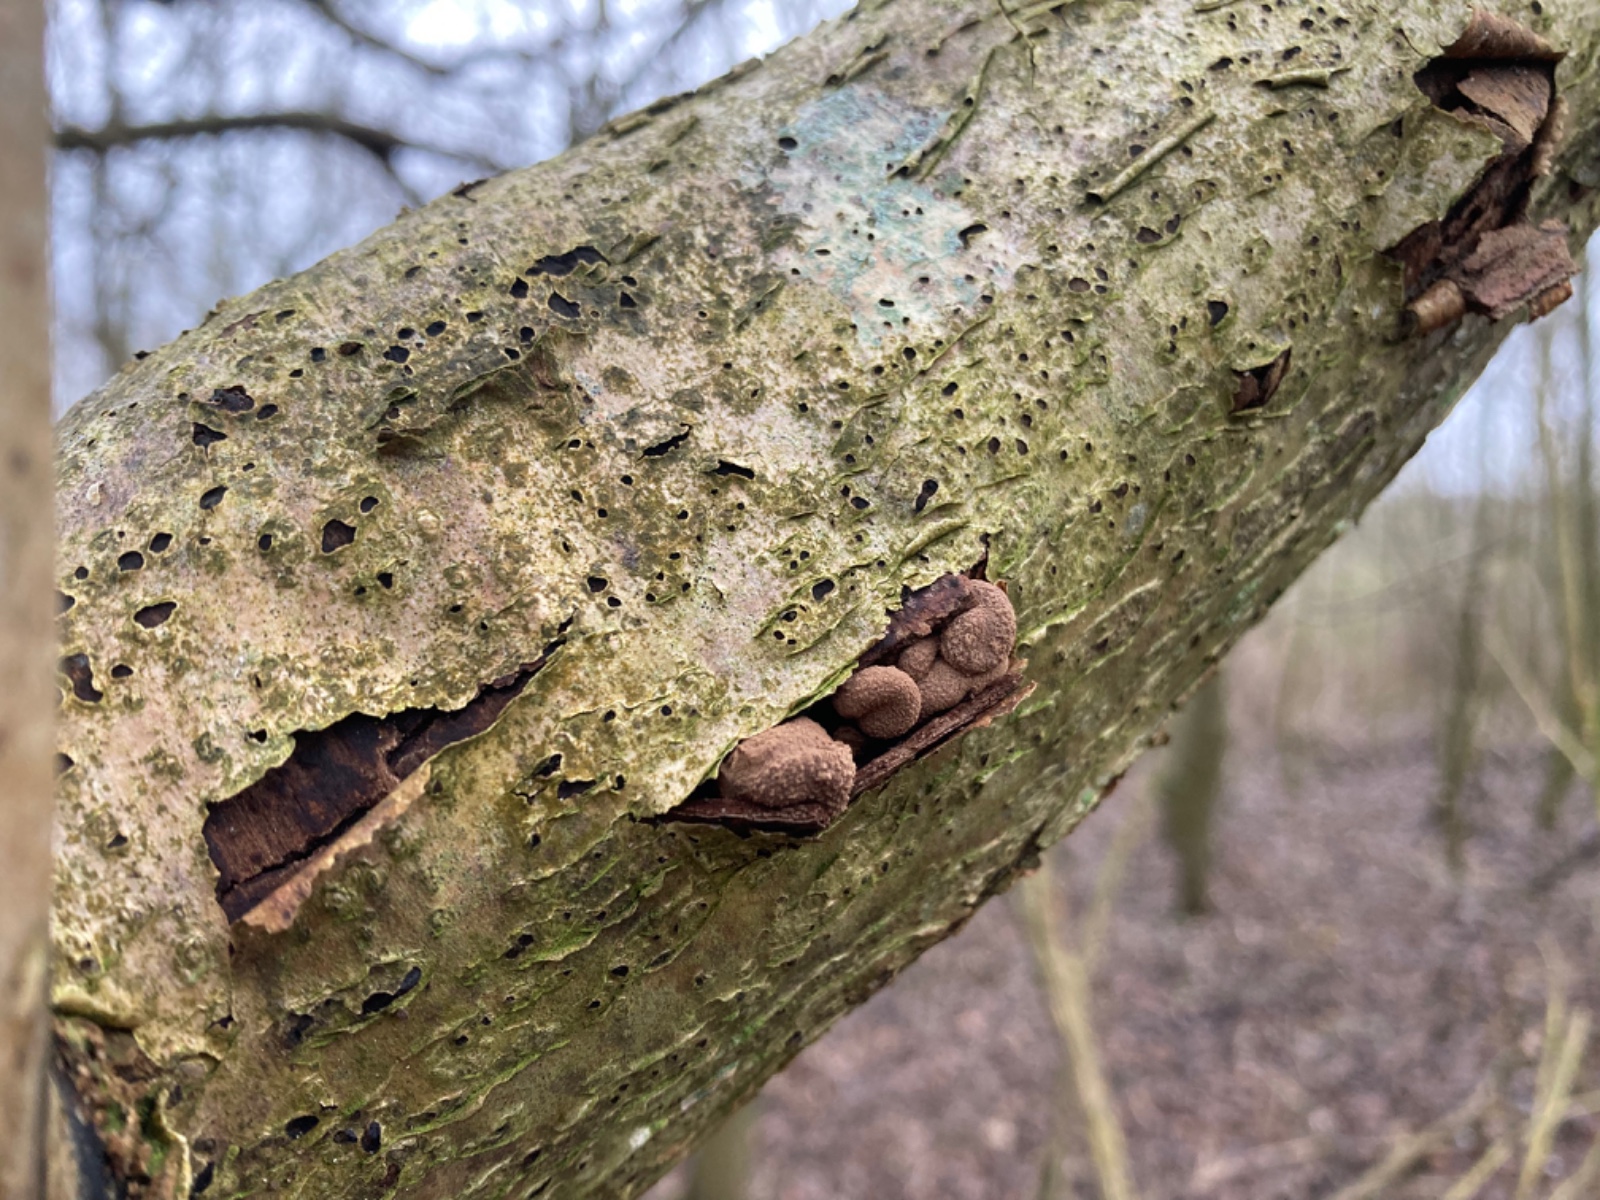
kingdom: Fungi
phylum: Ascomycota
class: Leotiomycetes
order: Helotiales
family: Cenangiaceae
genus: Encoelia
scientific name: Encoelia furfuracea
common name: hassel-læderskive
